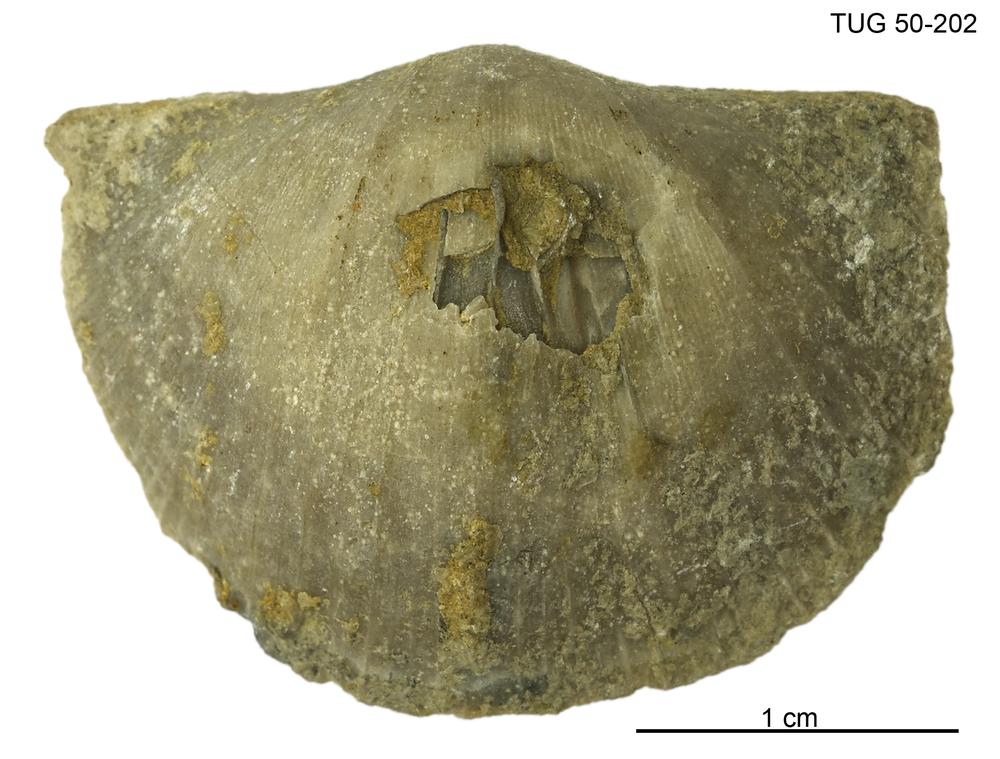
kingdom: Animalia
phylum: Brachiopoda
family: Oldhaminidae
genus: Eoplectodonta
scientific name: Eoplectodonta
